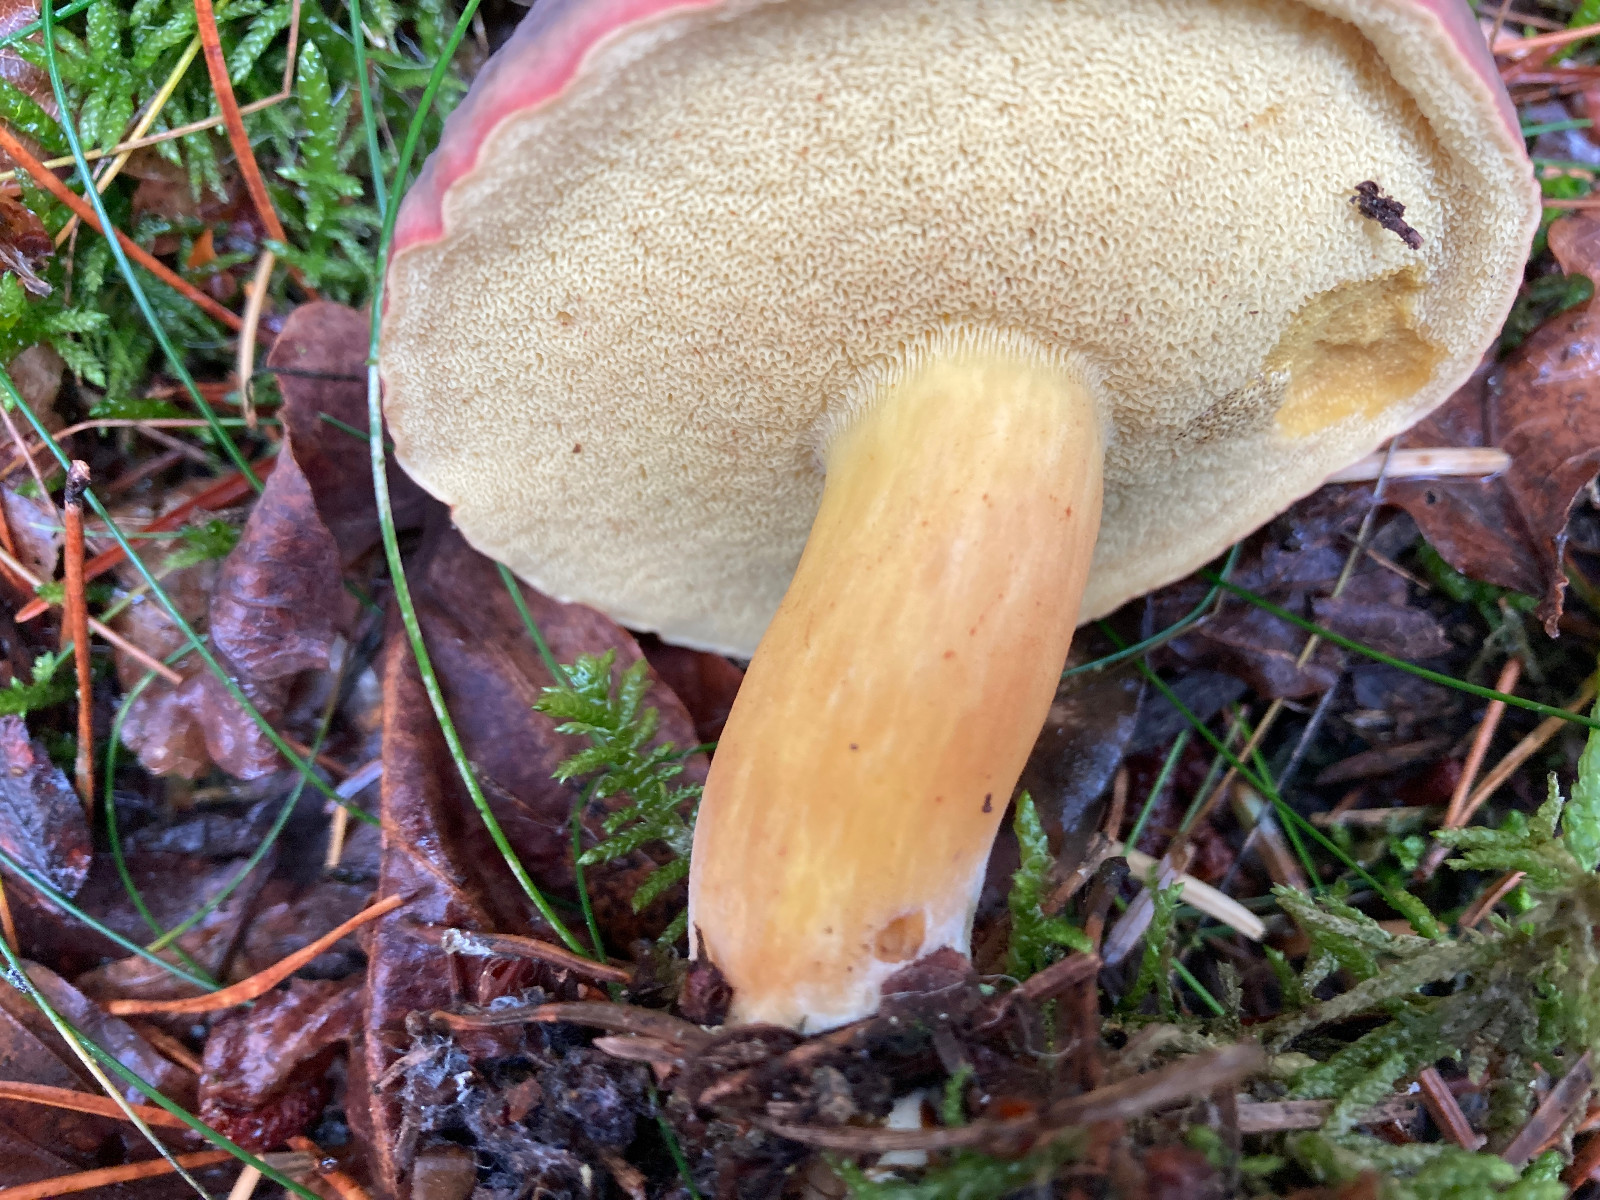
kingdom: Fungi
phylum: Basidiomycota
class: Agaricomycetes
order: Boletales
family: Boletaceae
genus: Xerocomellus
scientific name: Xerocomellus pruinatus
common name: dugget rørhat
